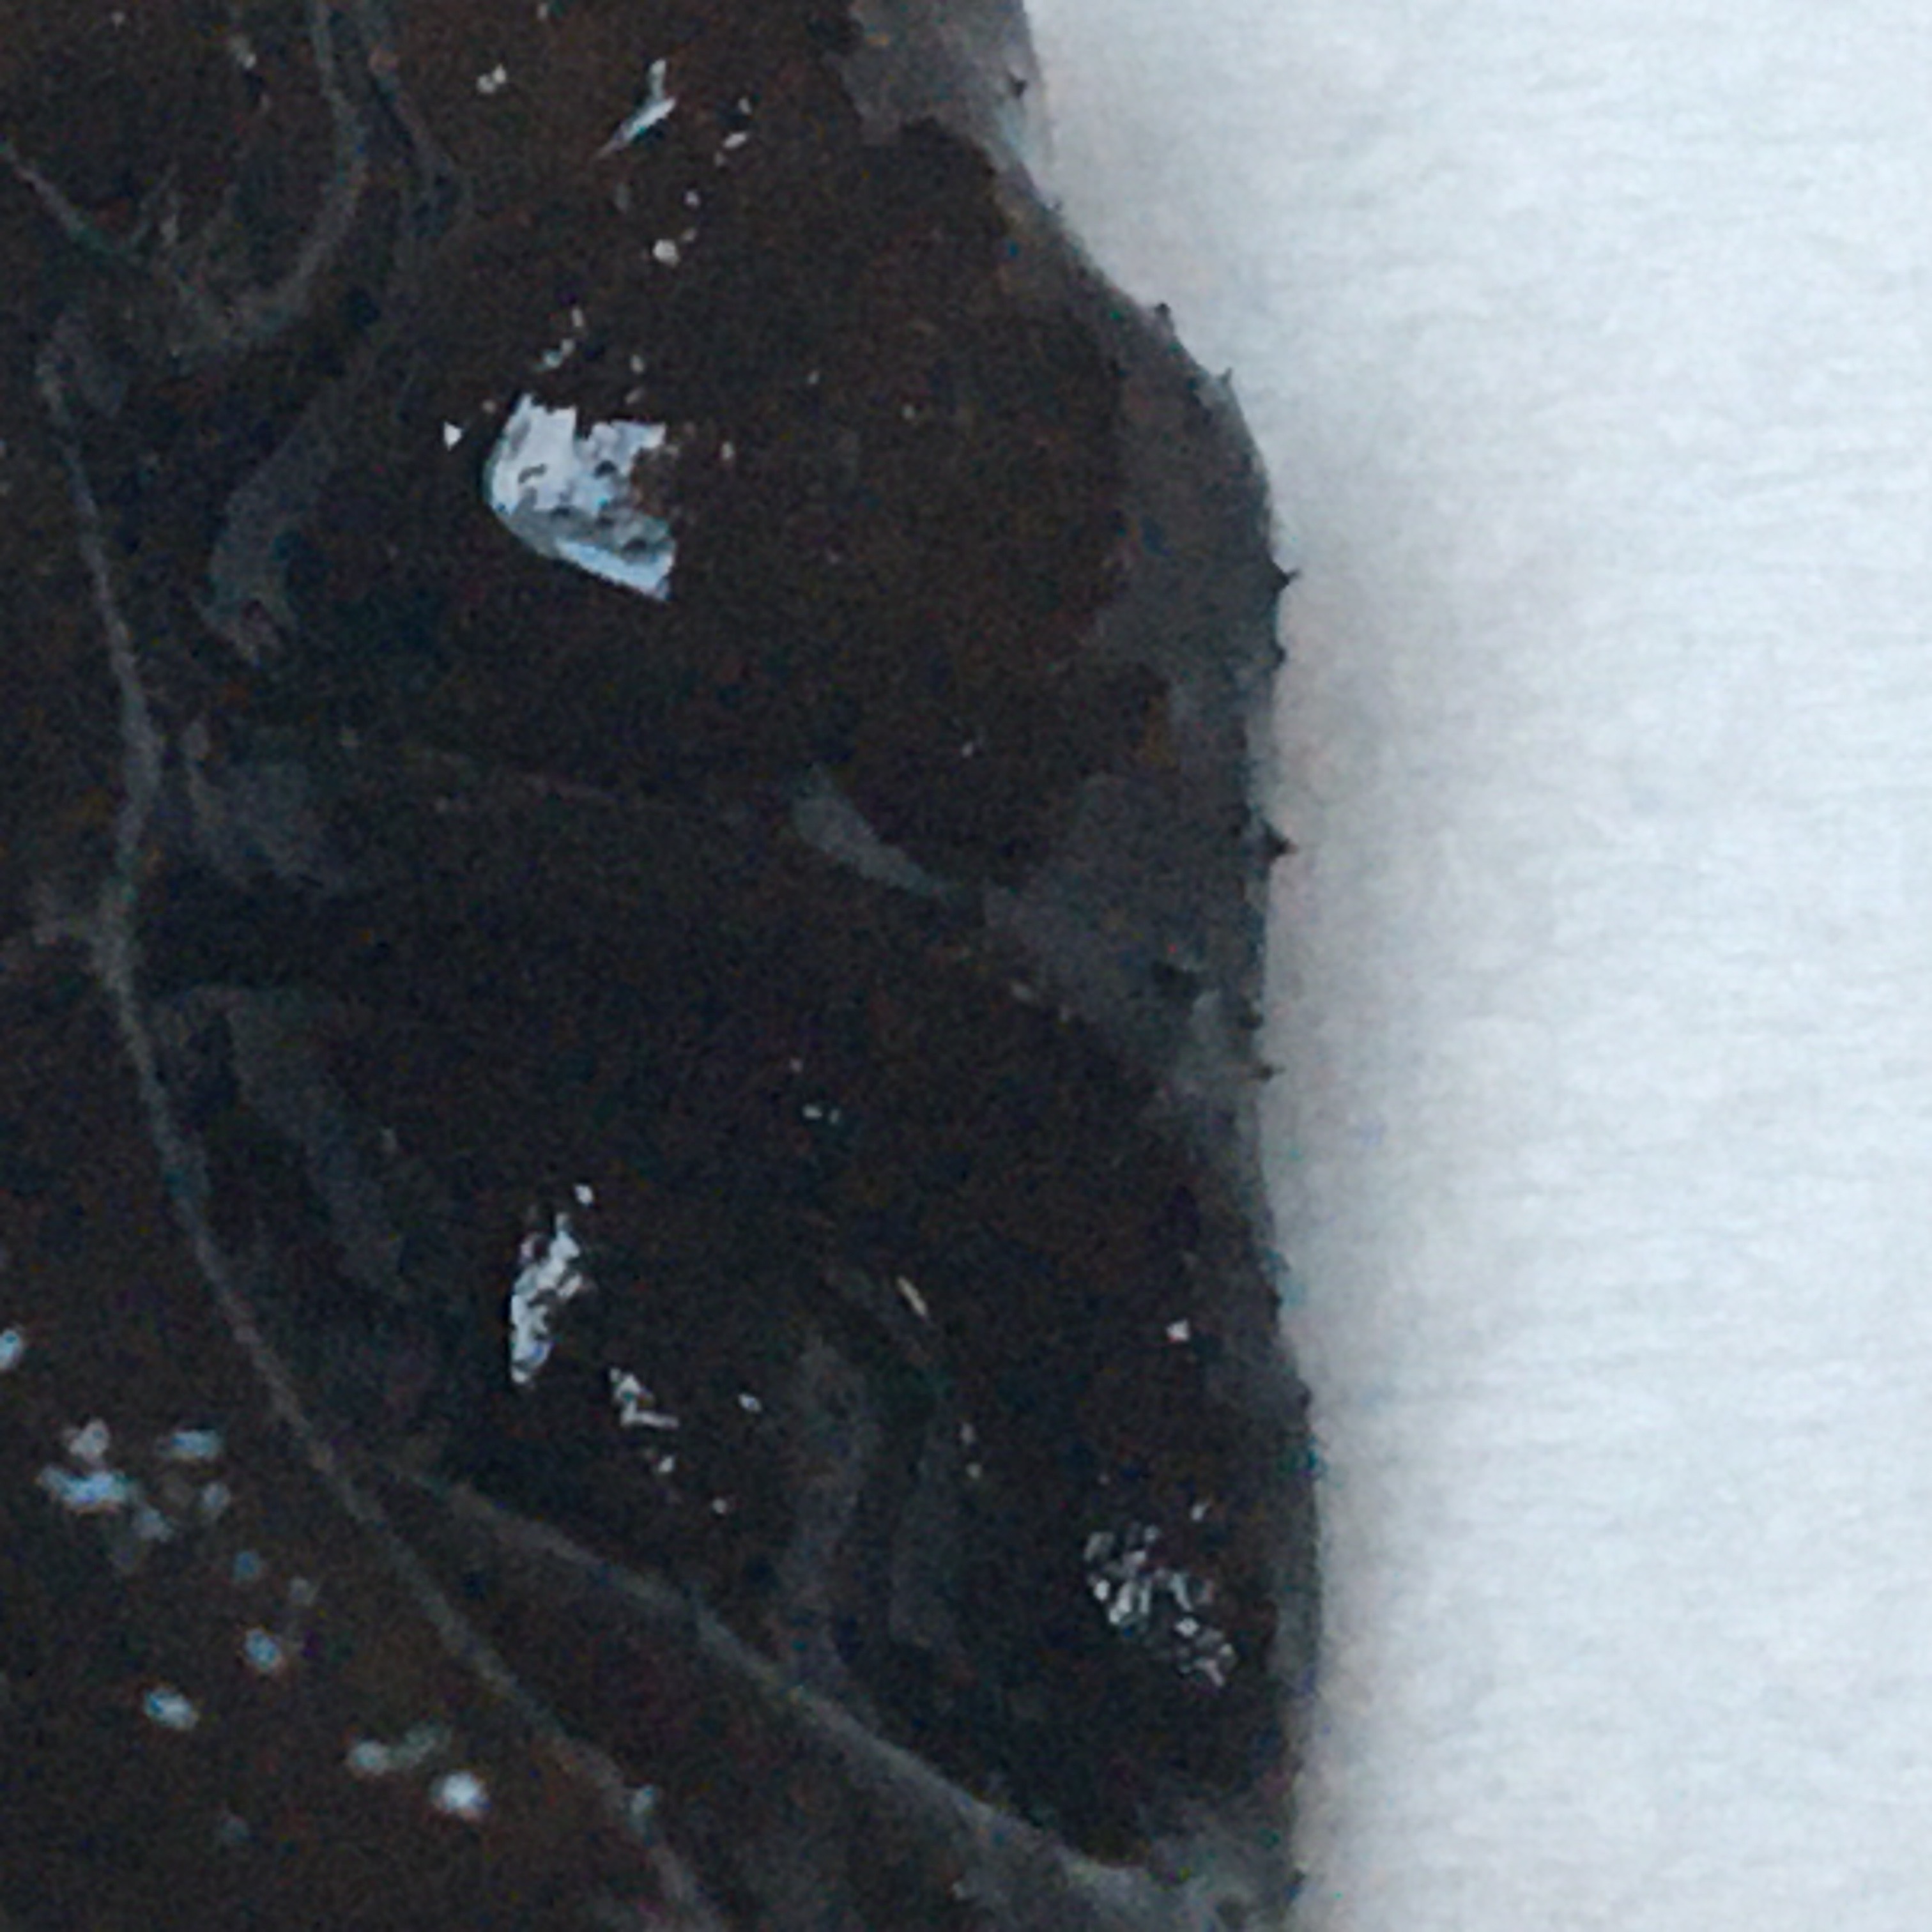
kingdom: Fungi
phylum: Basidiomycota
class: Agaricomycetes
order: Auriculariales
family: Auriculariaceae
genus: Exidia
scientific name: Exidia glandulosa
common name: ege-bævretop
